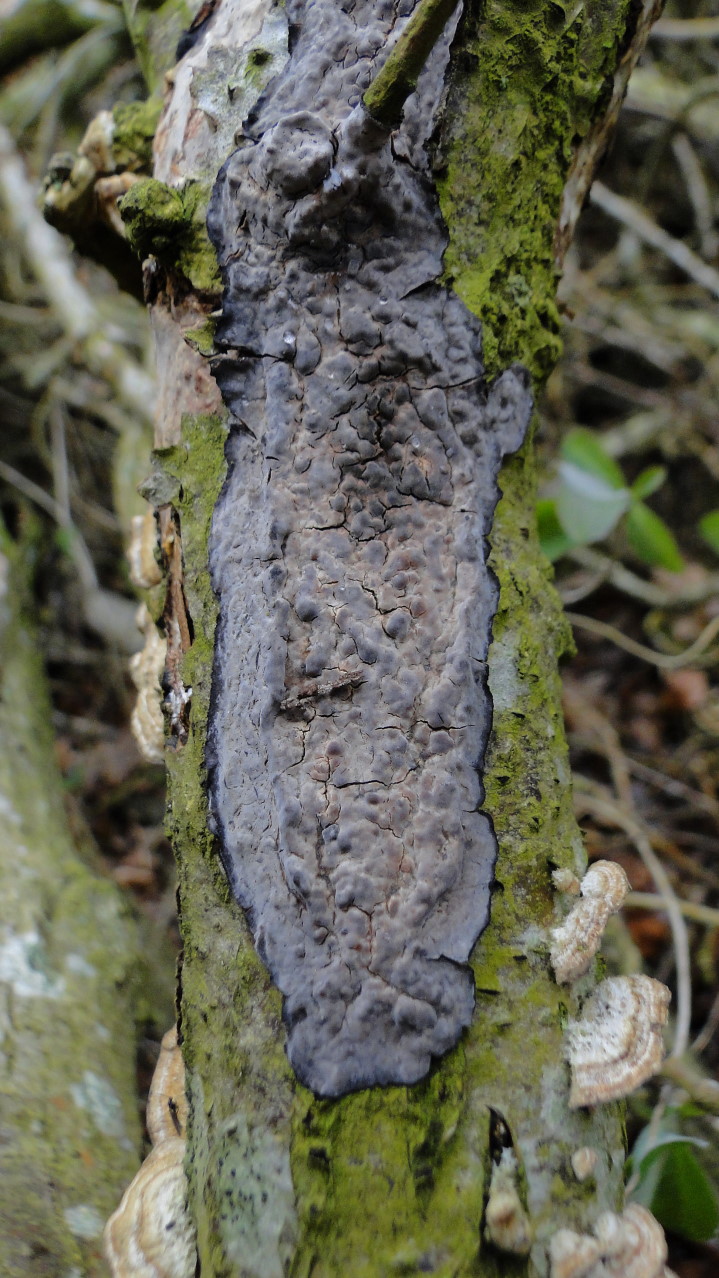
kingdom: Fungi
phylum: Basidiomycota
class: Agaricomycetes
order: Russulales
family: Peniophoraceae
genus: Peniophora
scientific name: Peniophora quercina
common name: ege-voksskind
